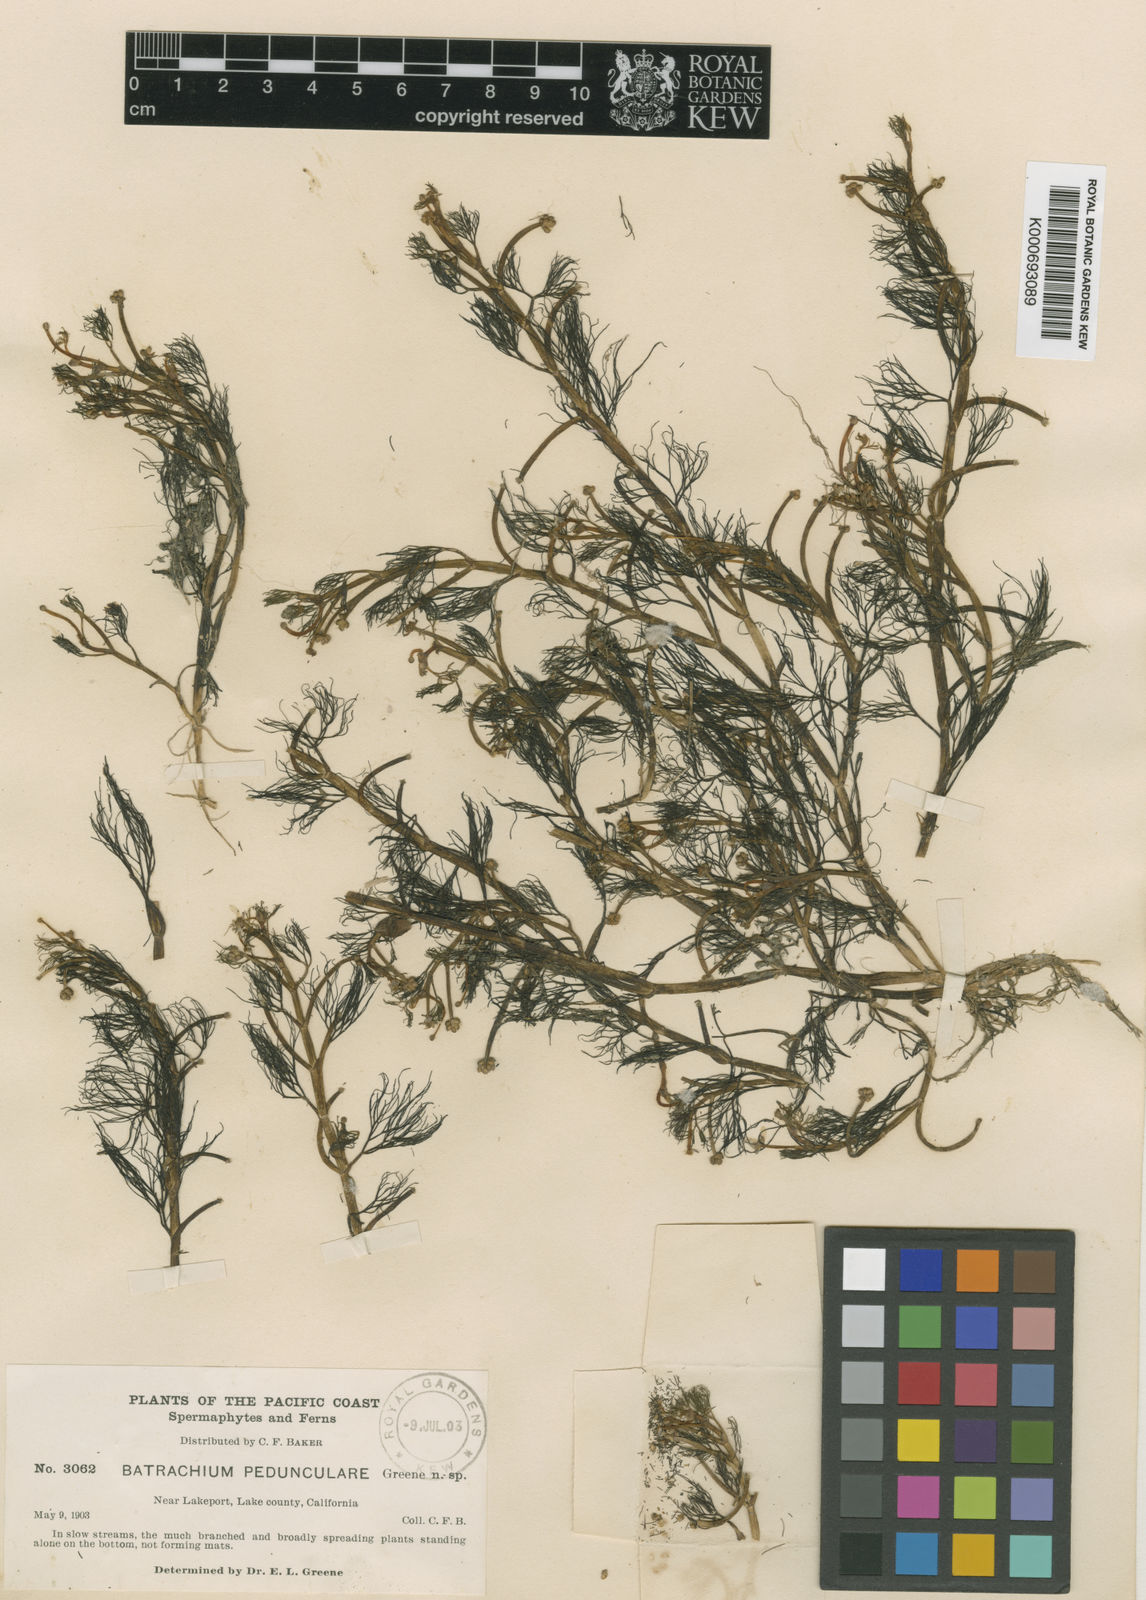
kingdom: Plantae
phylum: Tracheophyta
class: Magnoliopsida
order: Ranunculales
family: Ranunculaceae
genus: Ranunculus
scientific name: Ranunculus
